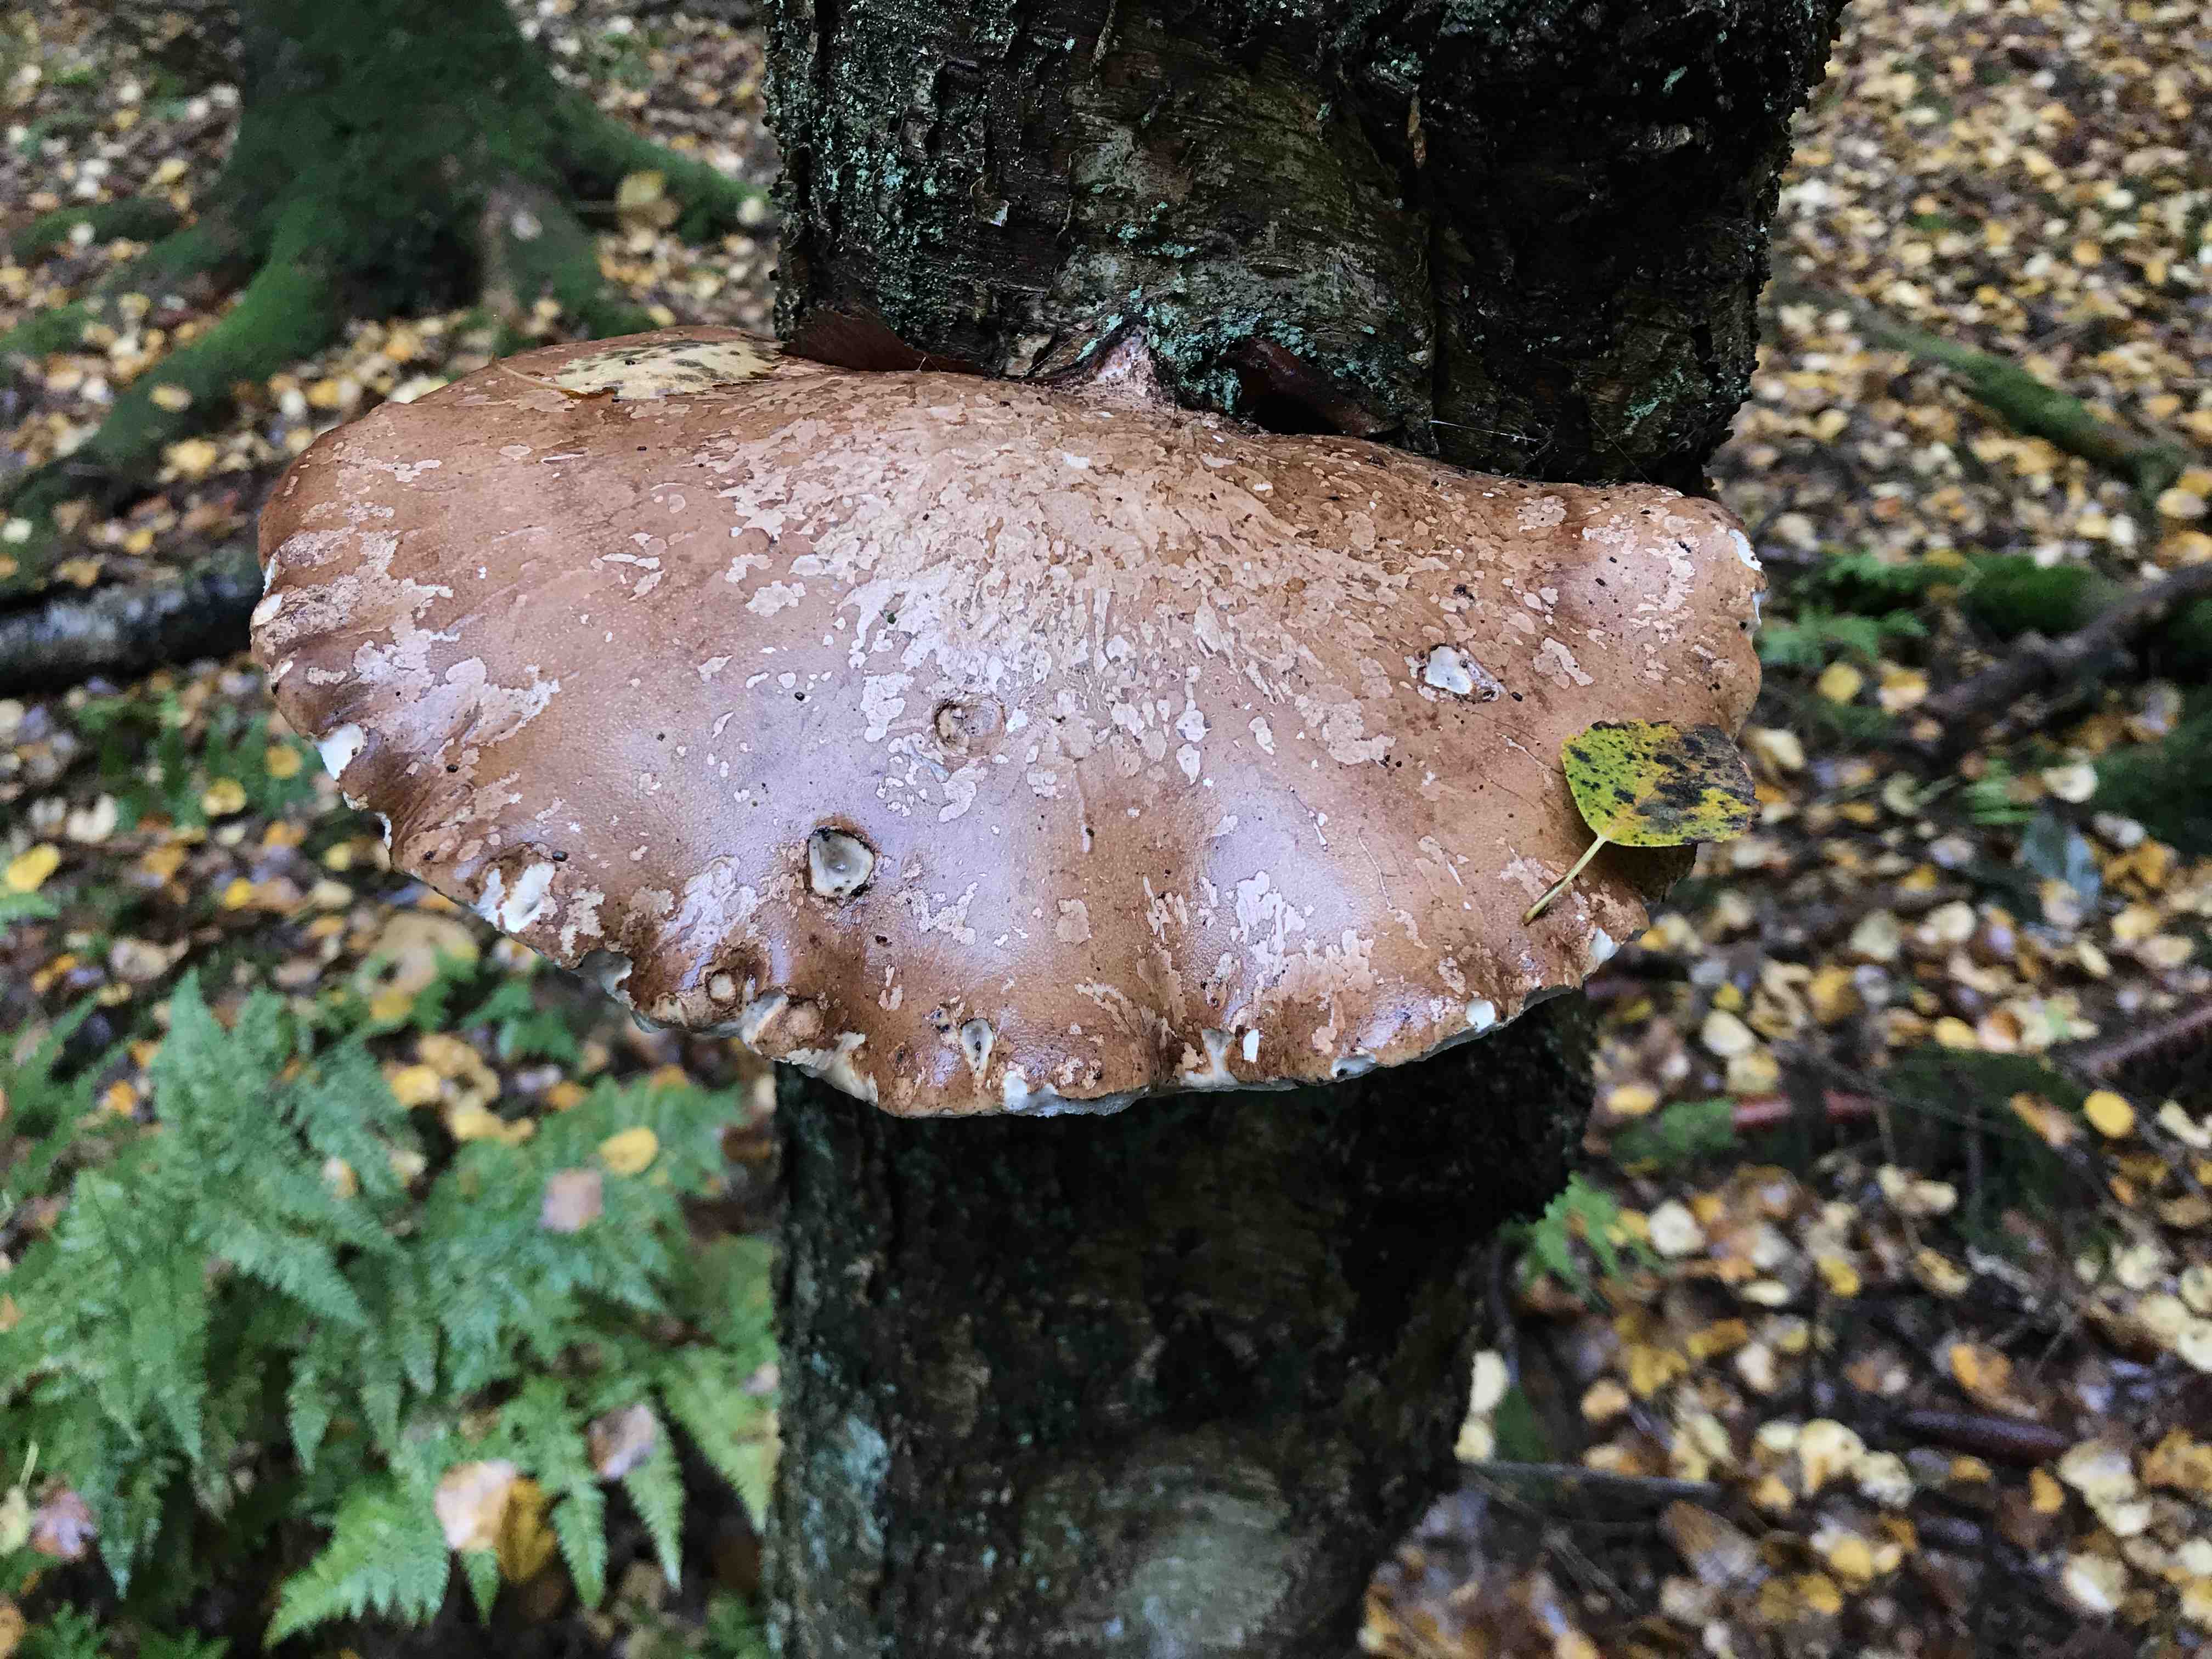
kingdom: Fungi
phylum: Basidiomycota
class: Agaricomycetes
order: Polyporales
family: Fomitopsidaceae
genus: Fomitopsis
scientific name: Fomitopsis betulina
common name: birkeporesvamp
